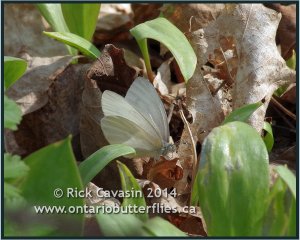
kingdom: Animalia
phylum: Arthropoda
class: Insecta
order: Lepidoptera
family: Pieridae
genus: Pieris
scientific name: Pieris virginiensis
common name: West Virginia White
